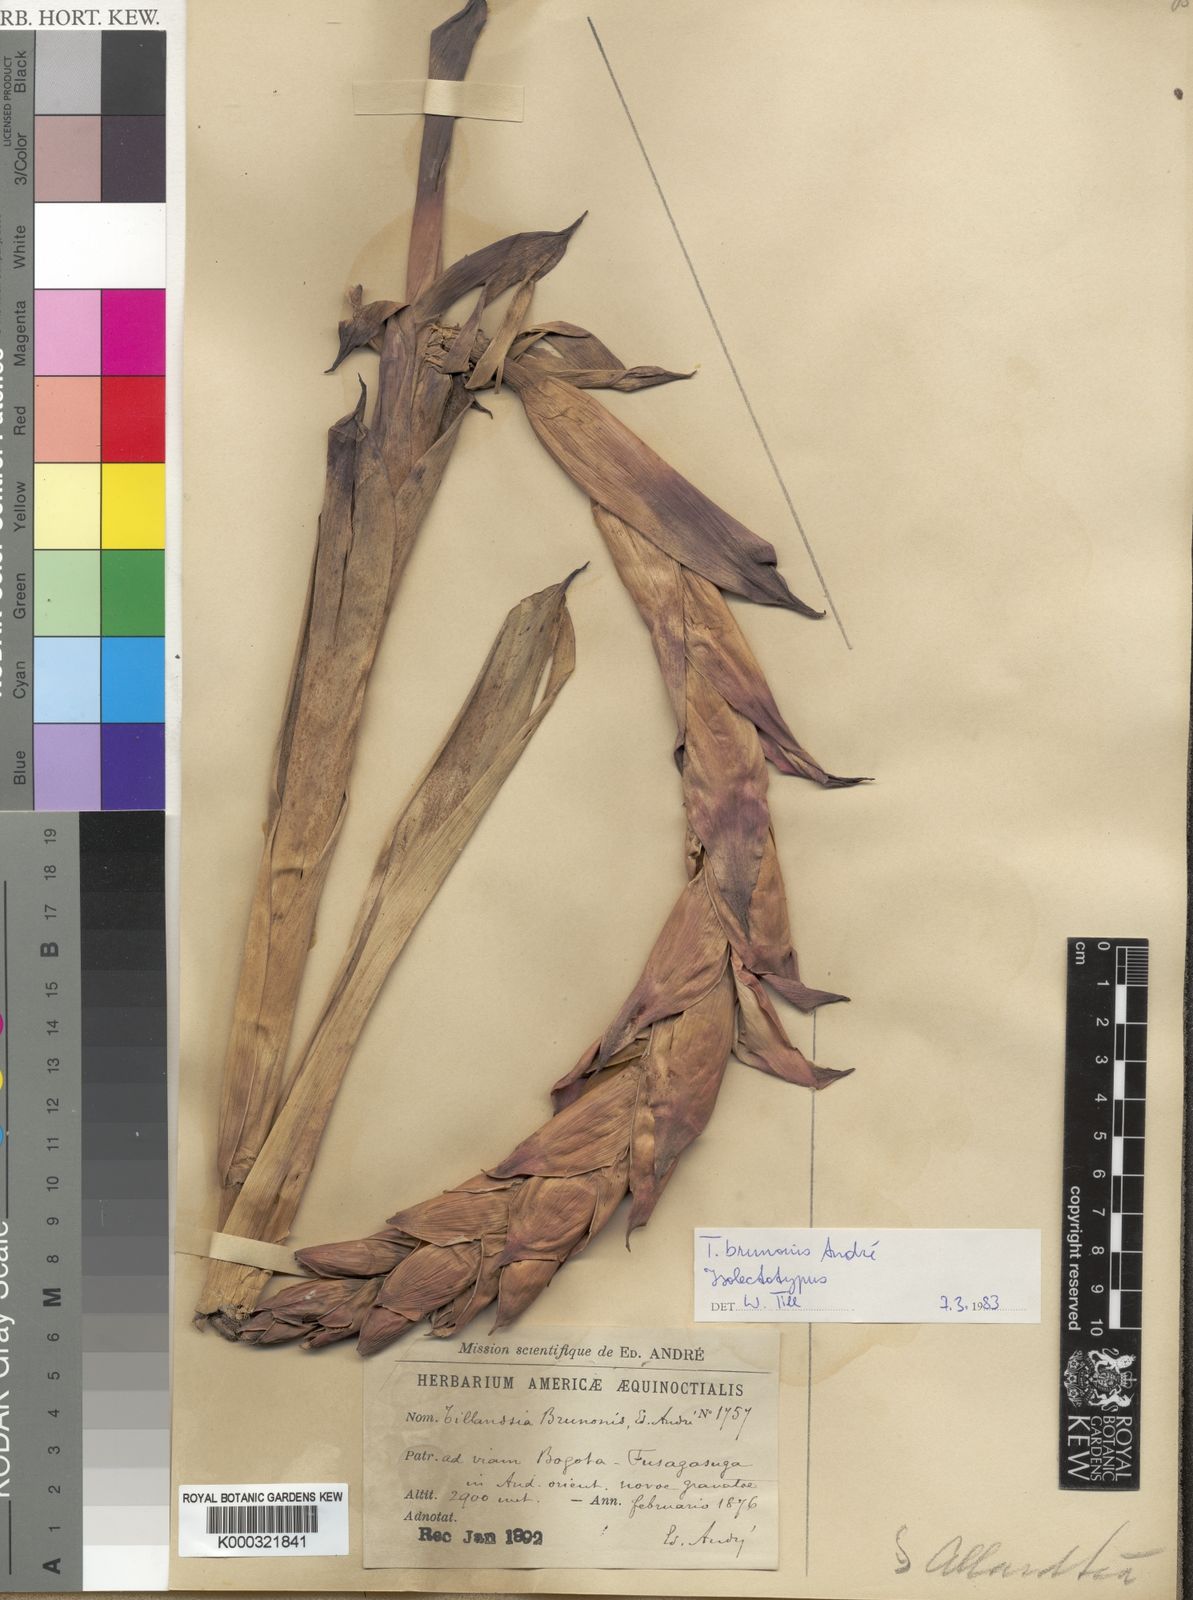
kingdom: Plantae
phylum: Tracheophyta
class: Liliopsida
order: Poales
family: Bromeliaceae
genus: Tillandsia
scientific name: Tillandsia
